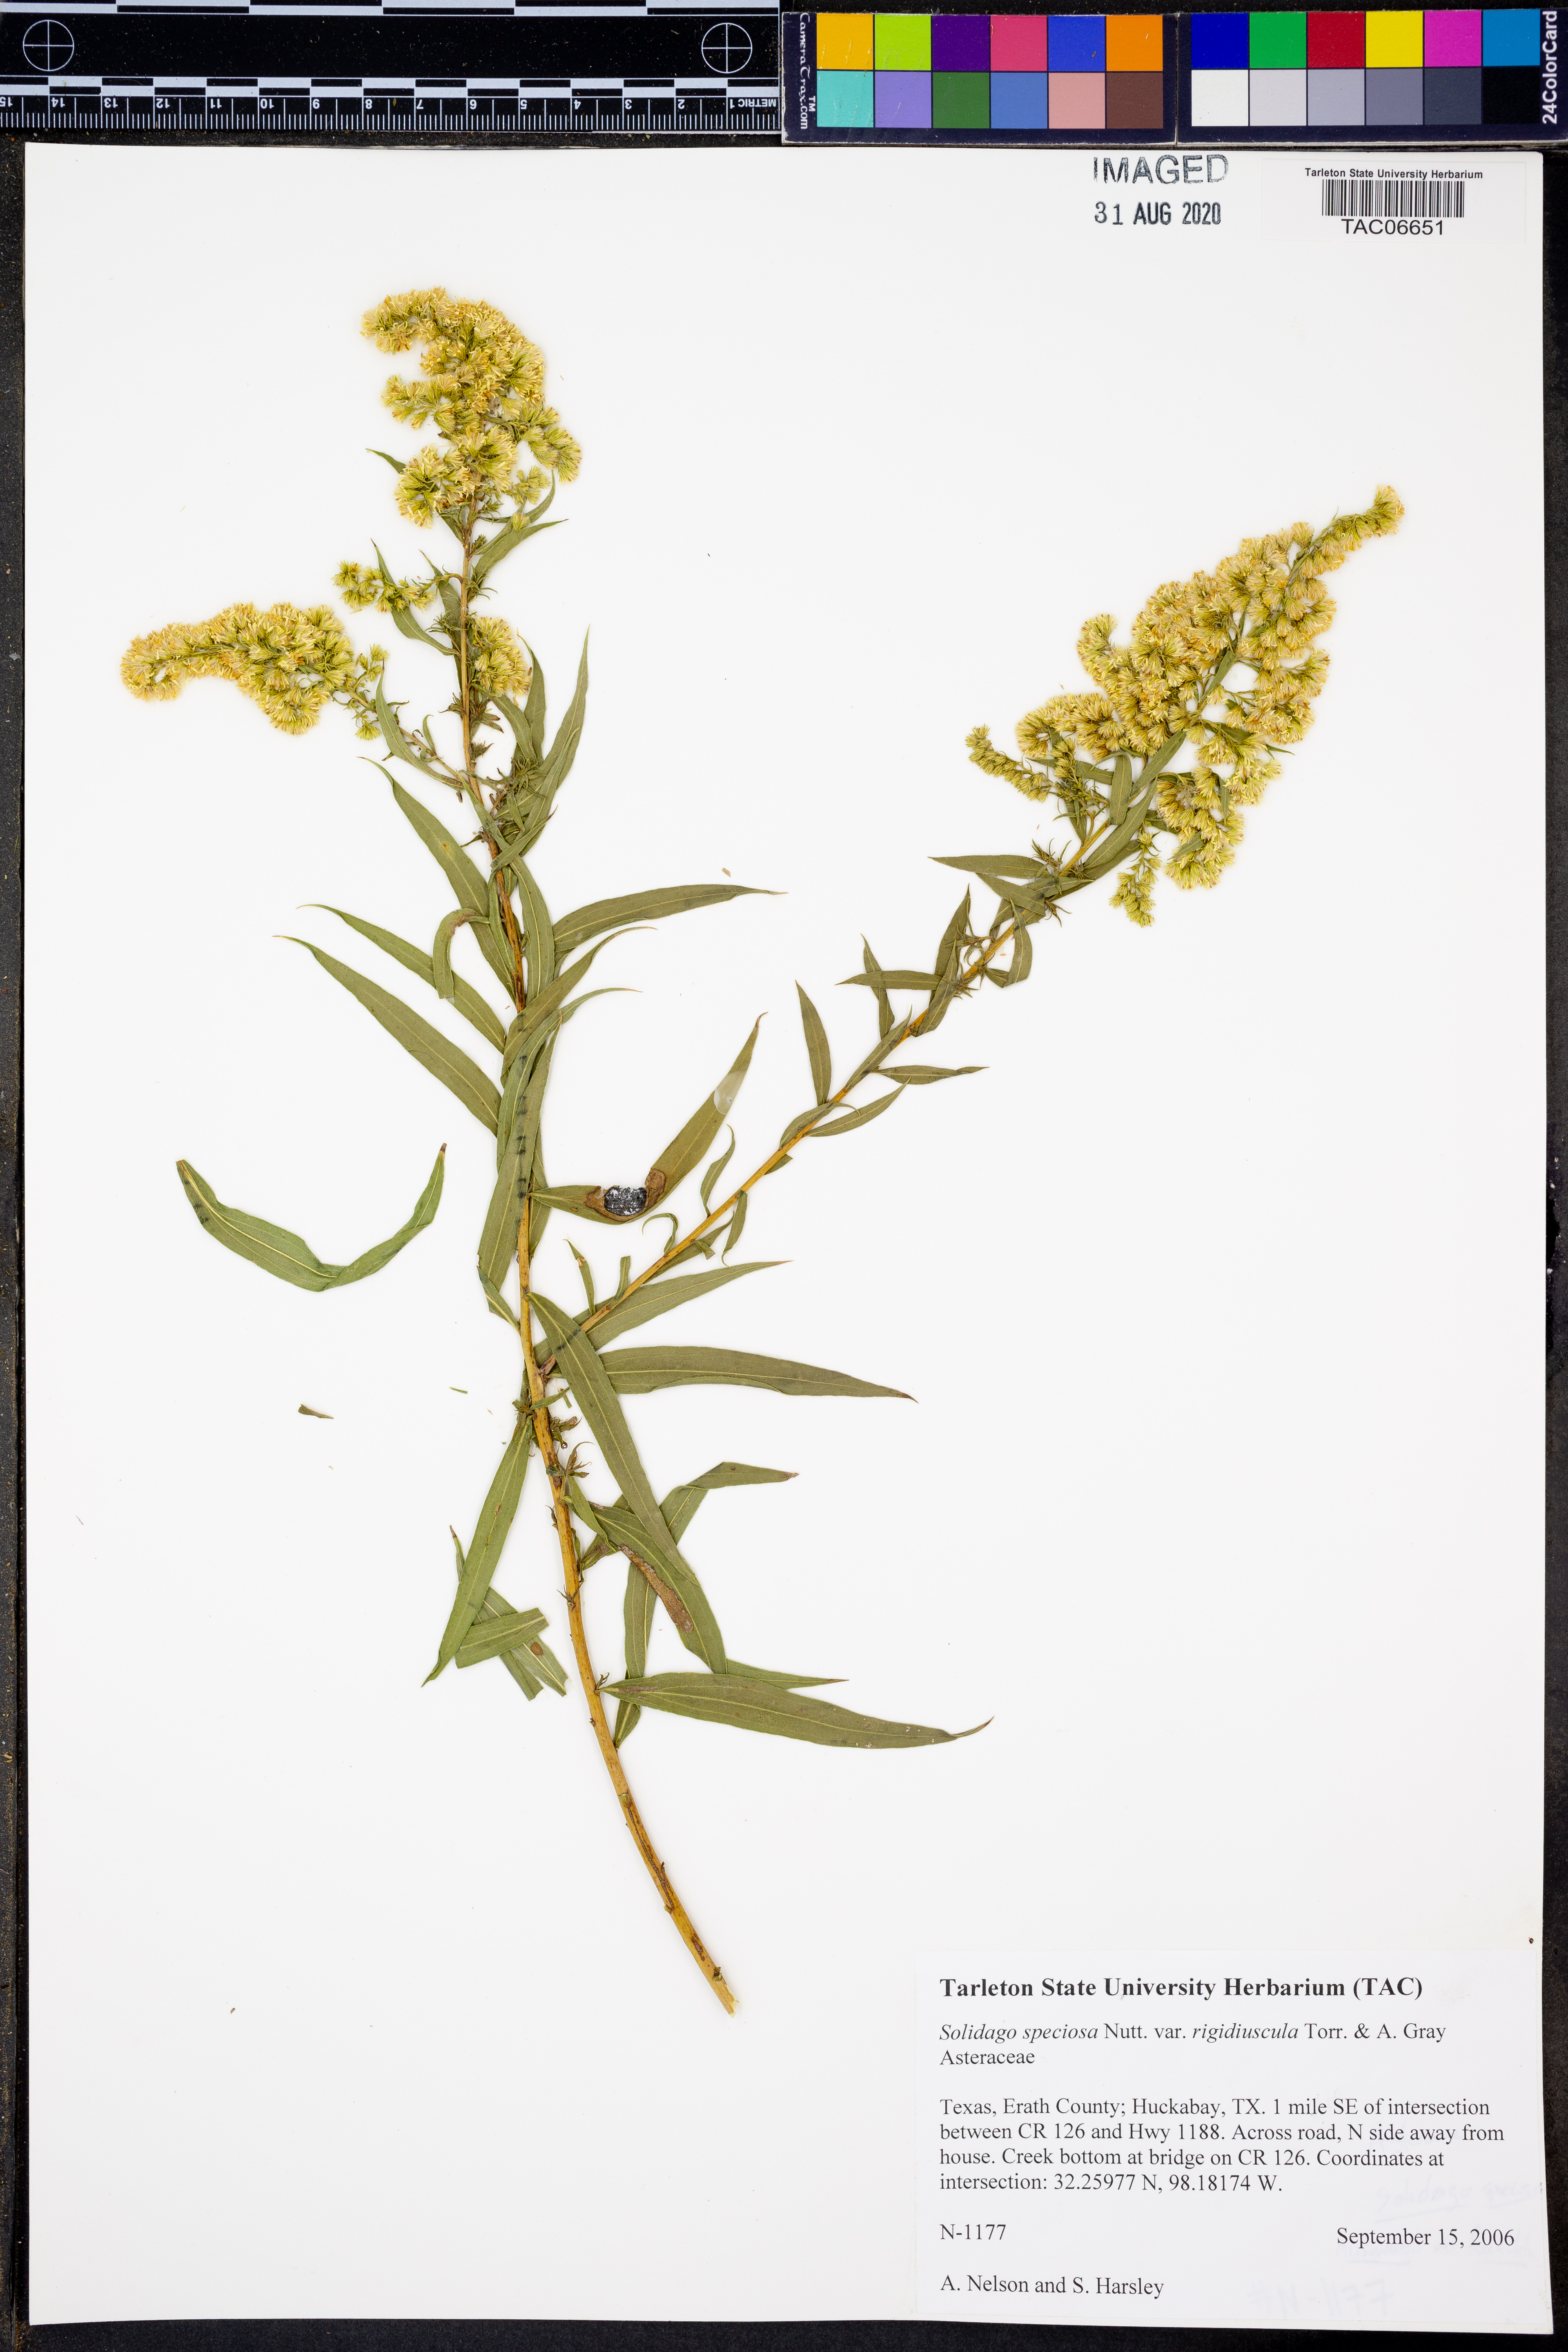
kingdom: Plantae
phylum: Tracheophyta
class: Magnoliopsida
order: Asterales
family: Asteraceae
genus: Solidago
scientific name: Solidago rigidiuscula
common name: Stiff-leaved showy goldenrod
